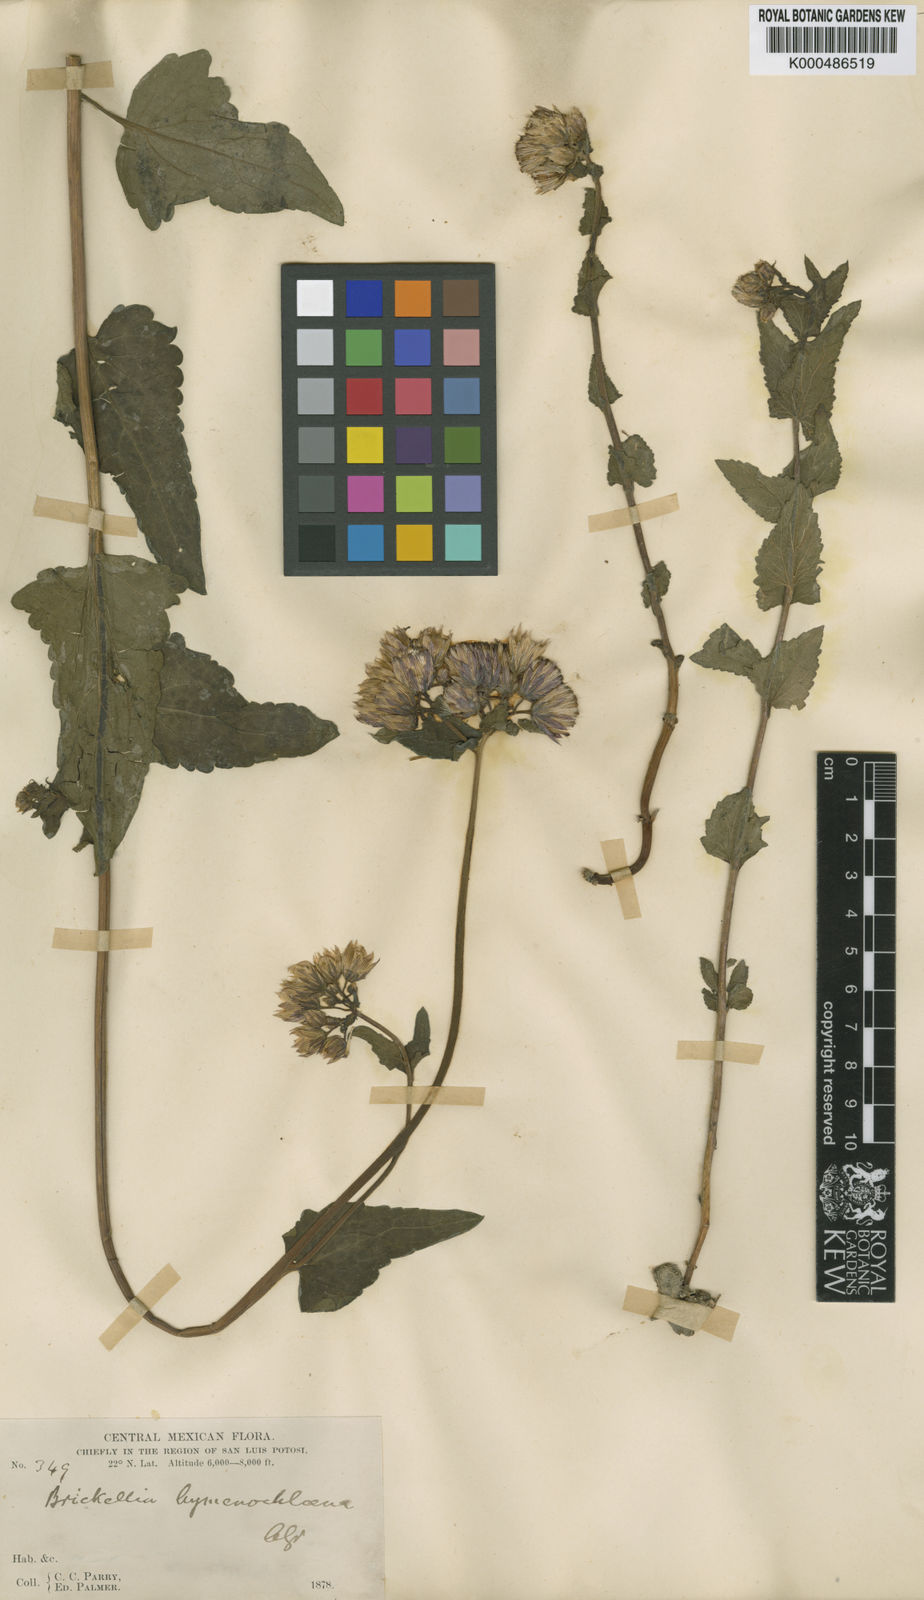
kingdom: Plantae
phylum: Tracheophyta
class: Magnoliopsida
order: Asterales
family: Asteraceae
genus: Brickellia
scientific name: Brickellia hymenochlaena
